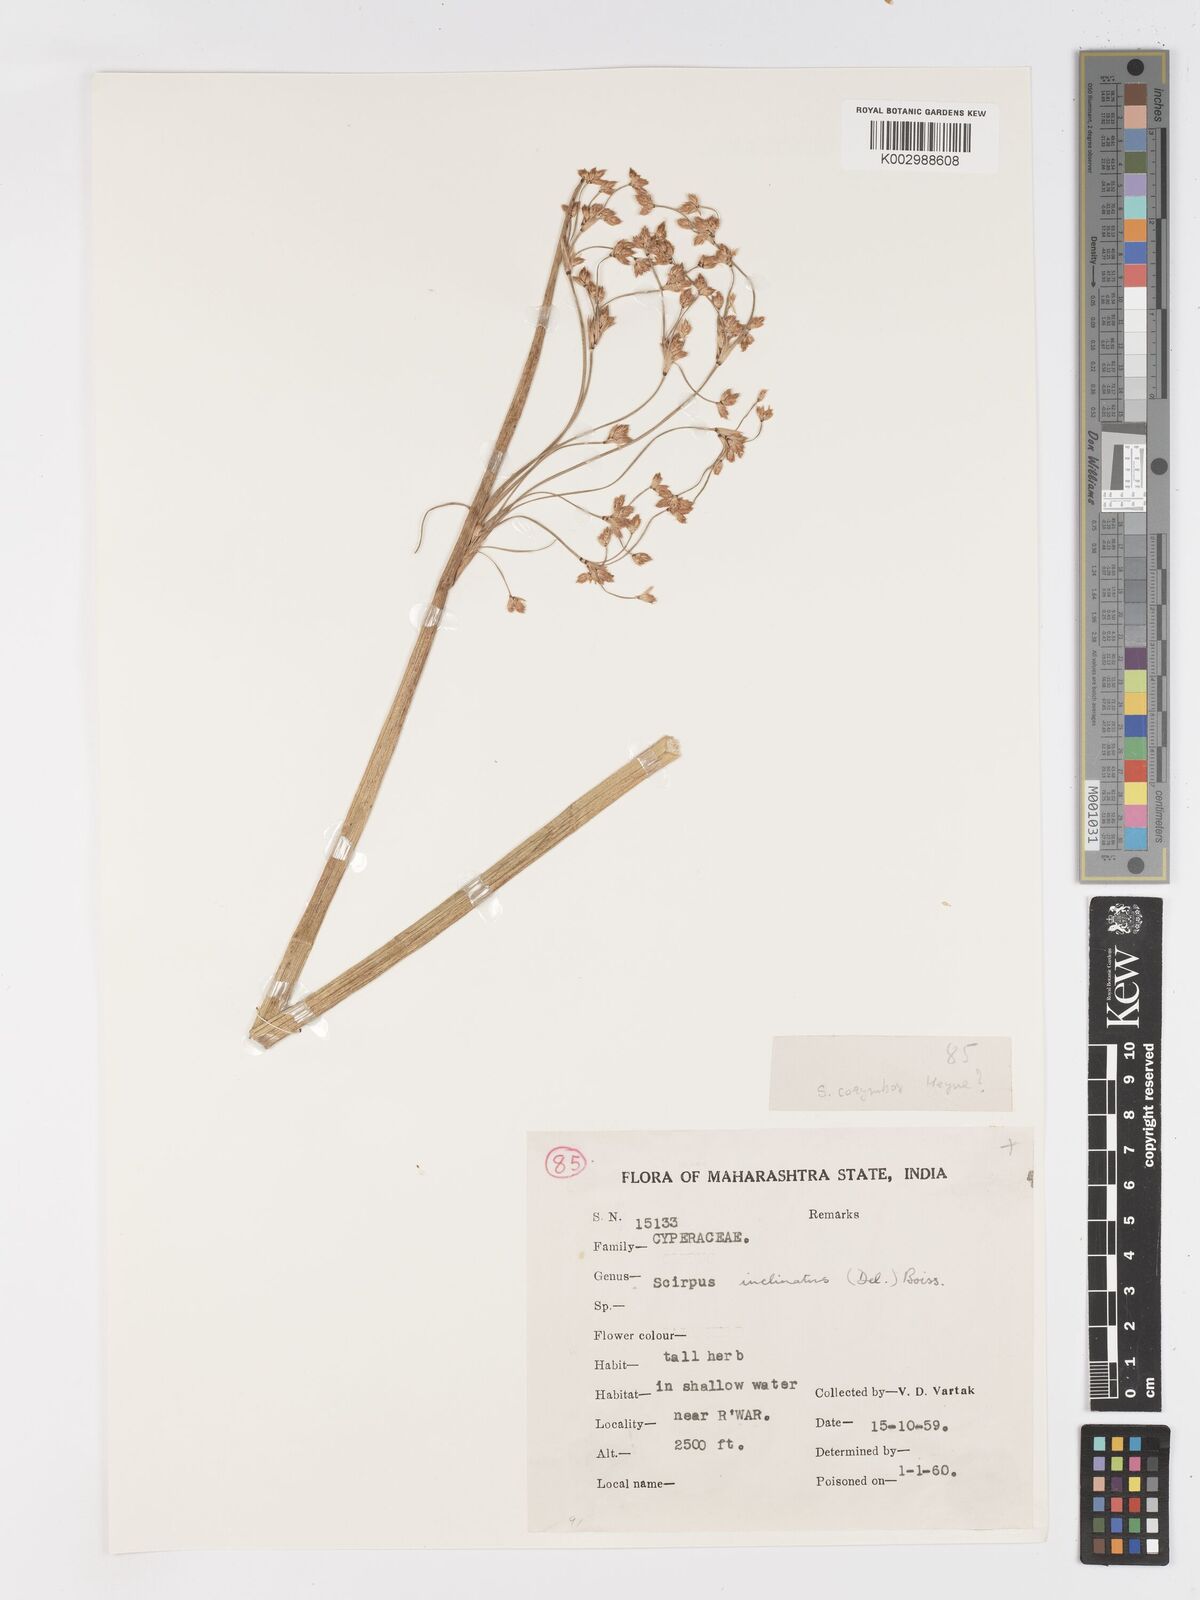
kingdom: Plantae
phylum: Tracheophyta
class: Liliopsida
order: Poales
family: Cyperaceae
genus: Schoenoplectiella
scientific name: Schoenoplectiella corymbosa
